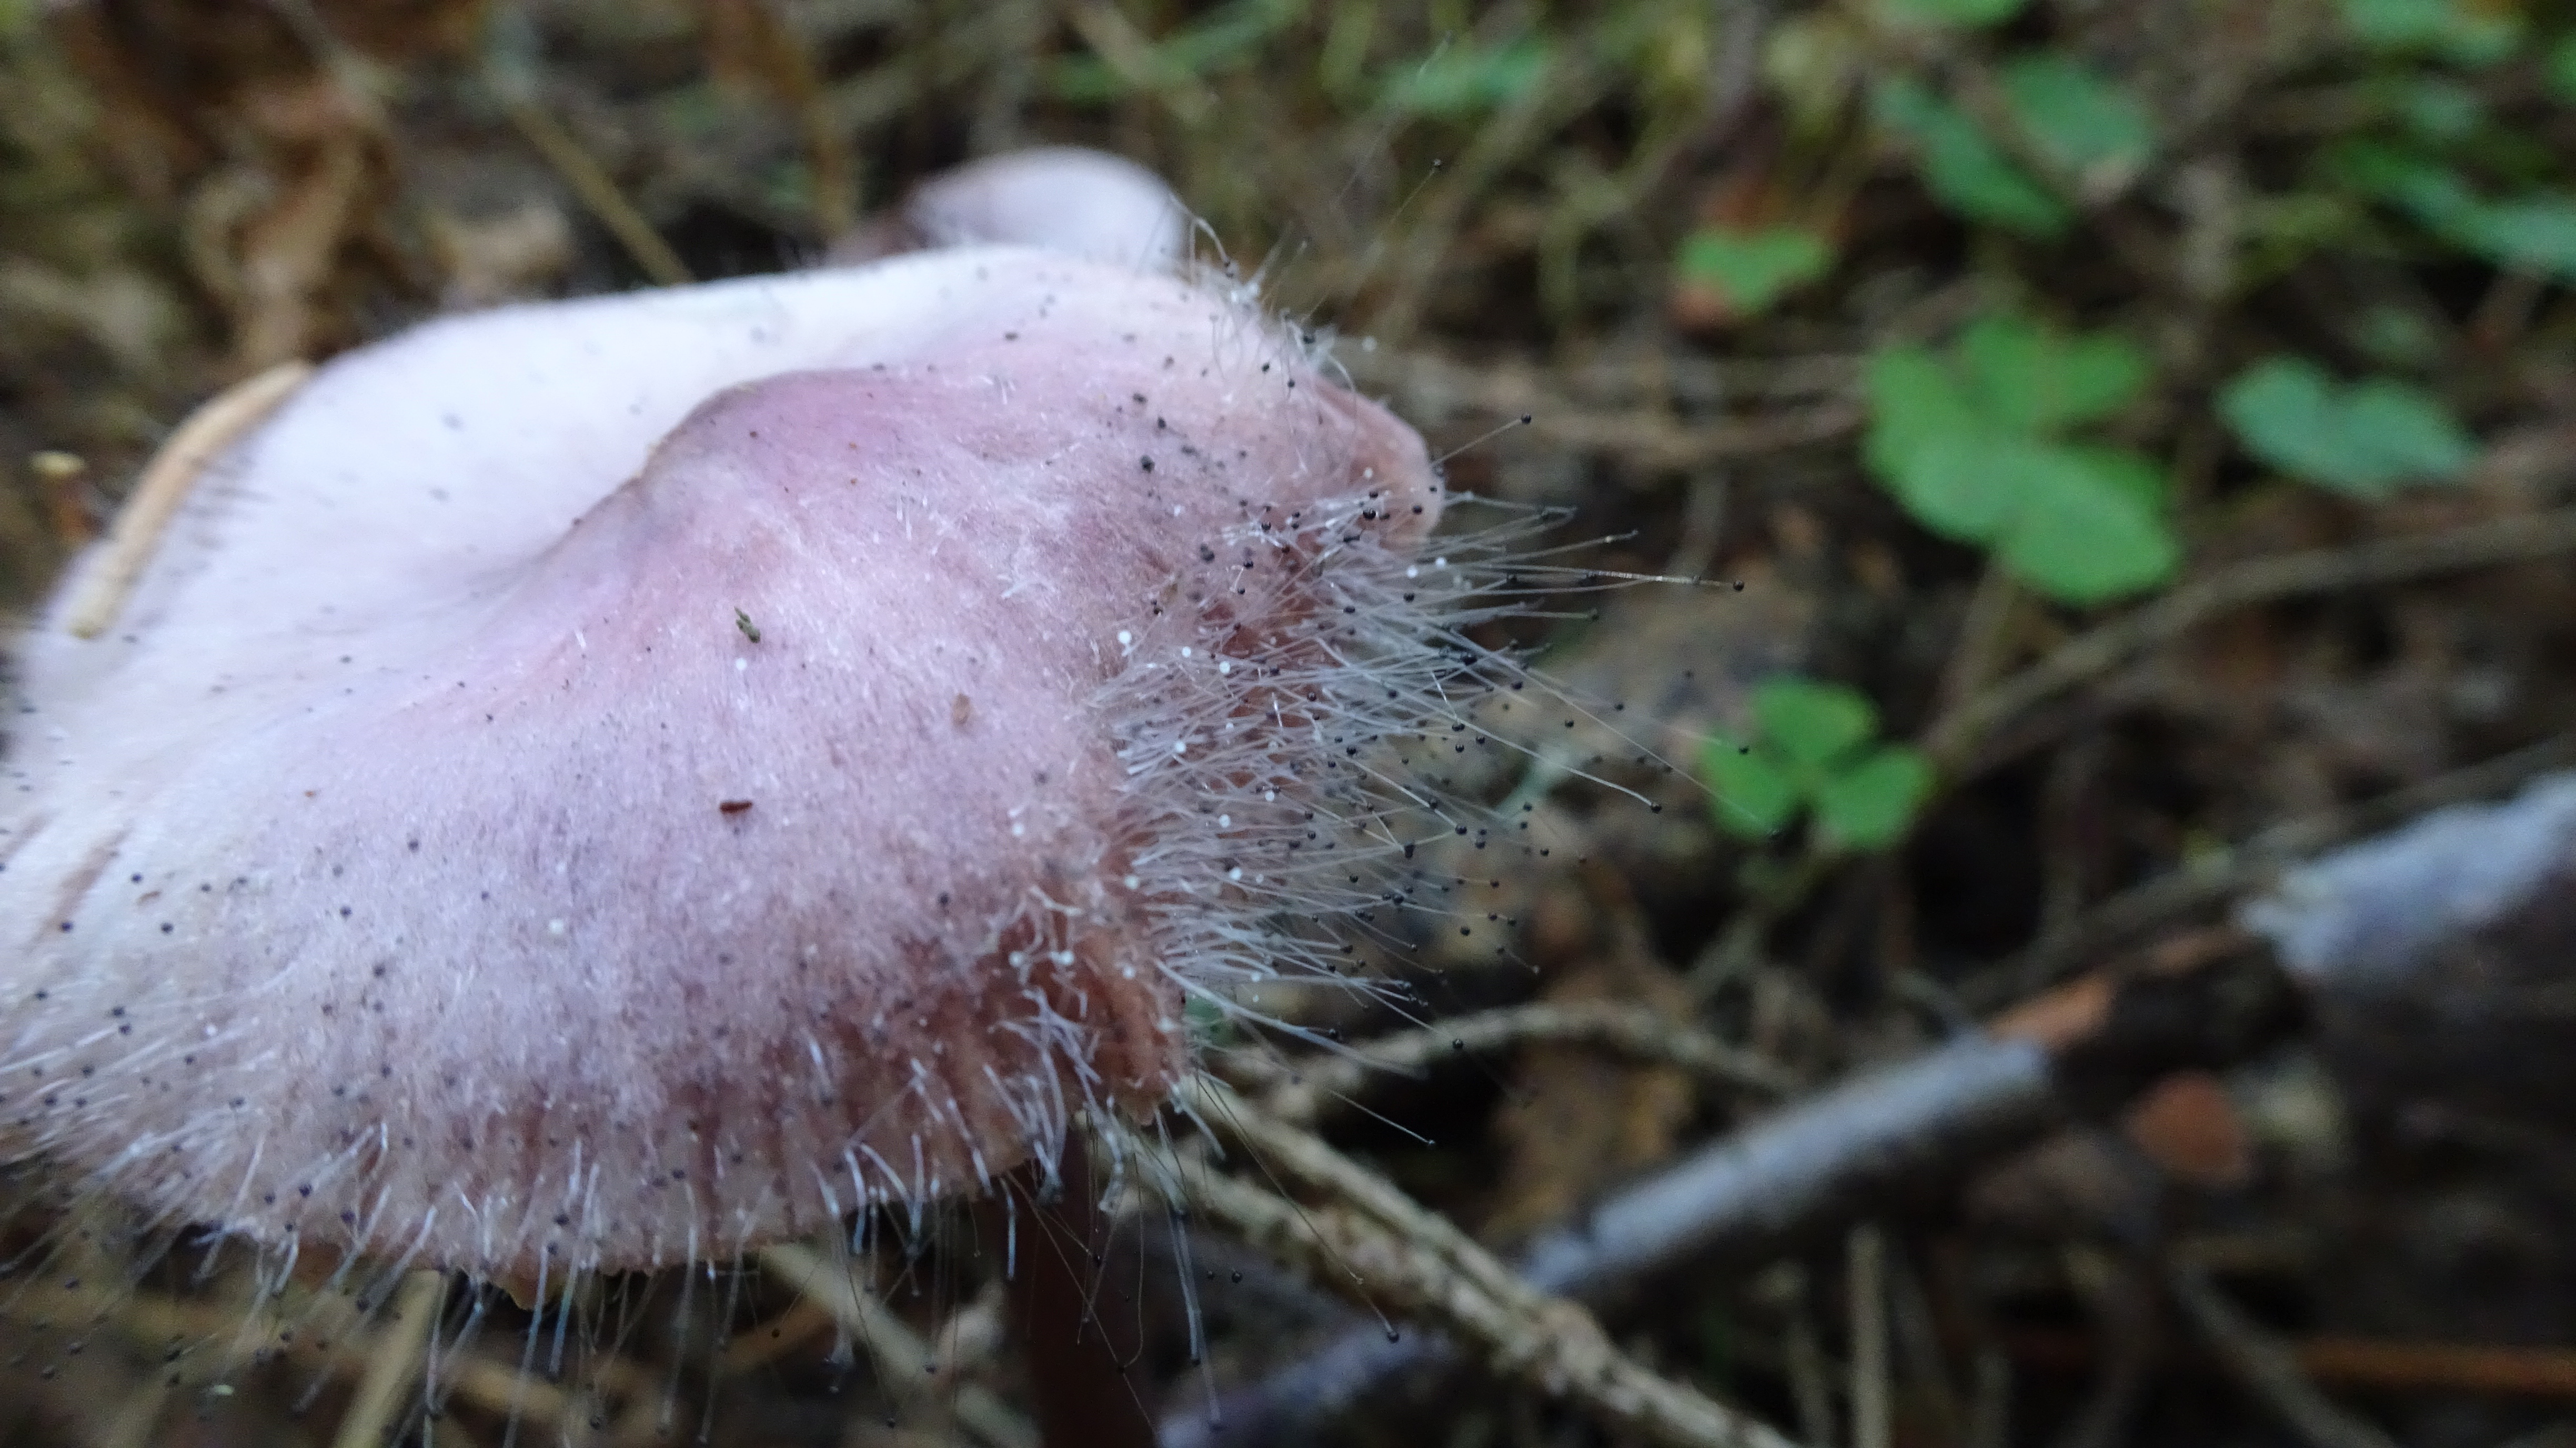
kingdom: Fungi
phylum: Mucoromycota
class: Mucoromycetes
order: Mucorales
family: Phycomycetaceae
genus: Spinellus
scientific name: Spinellus fusiger
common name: Bonnet mould
